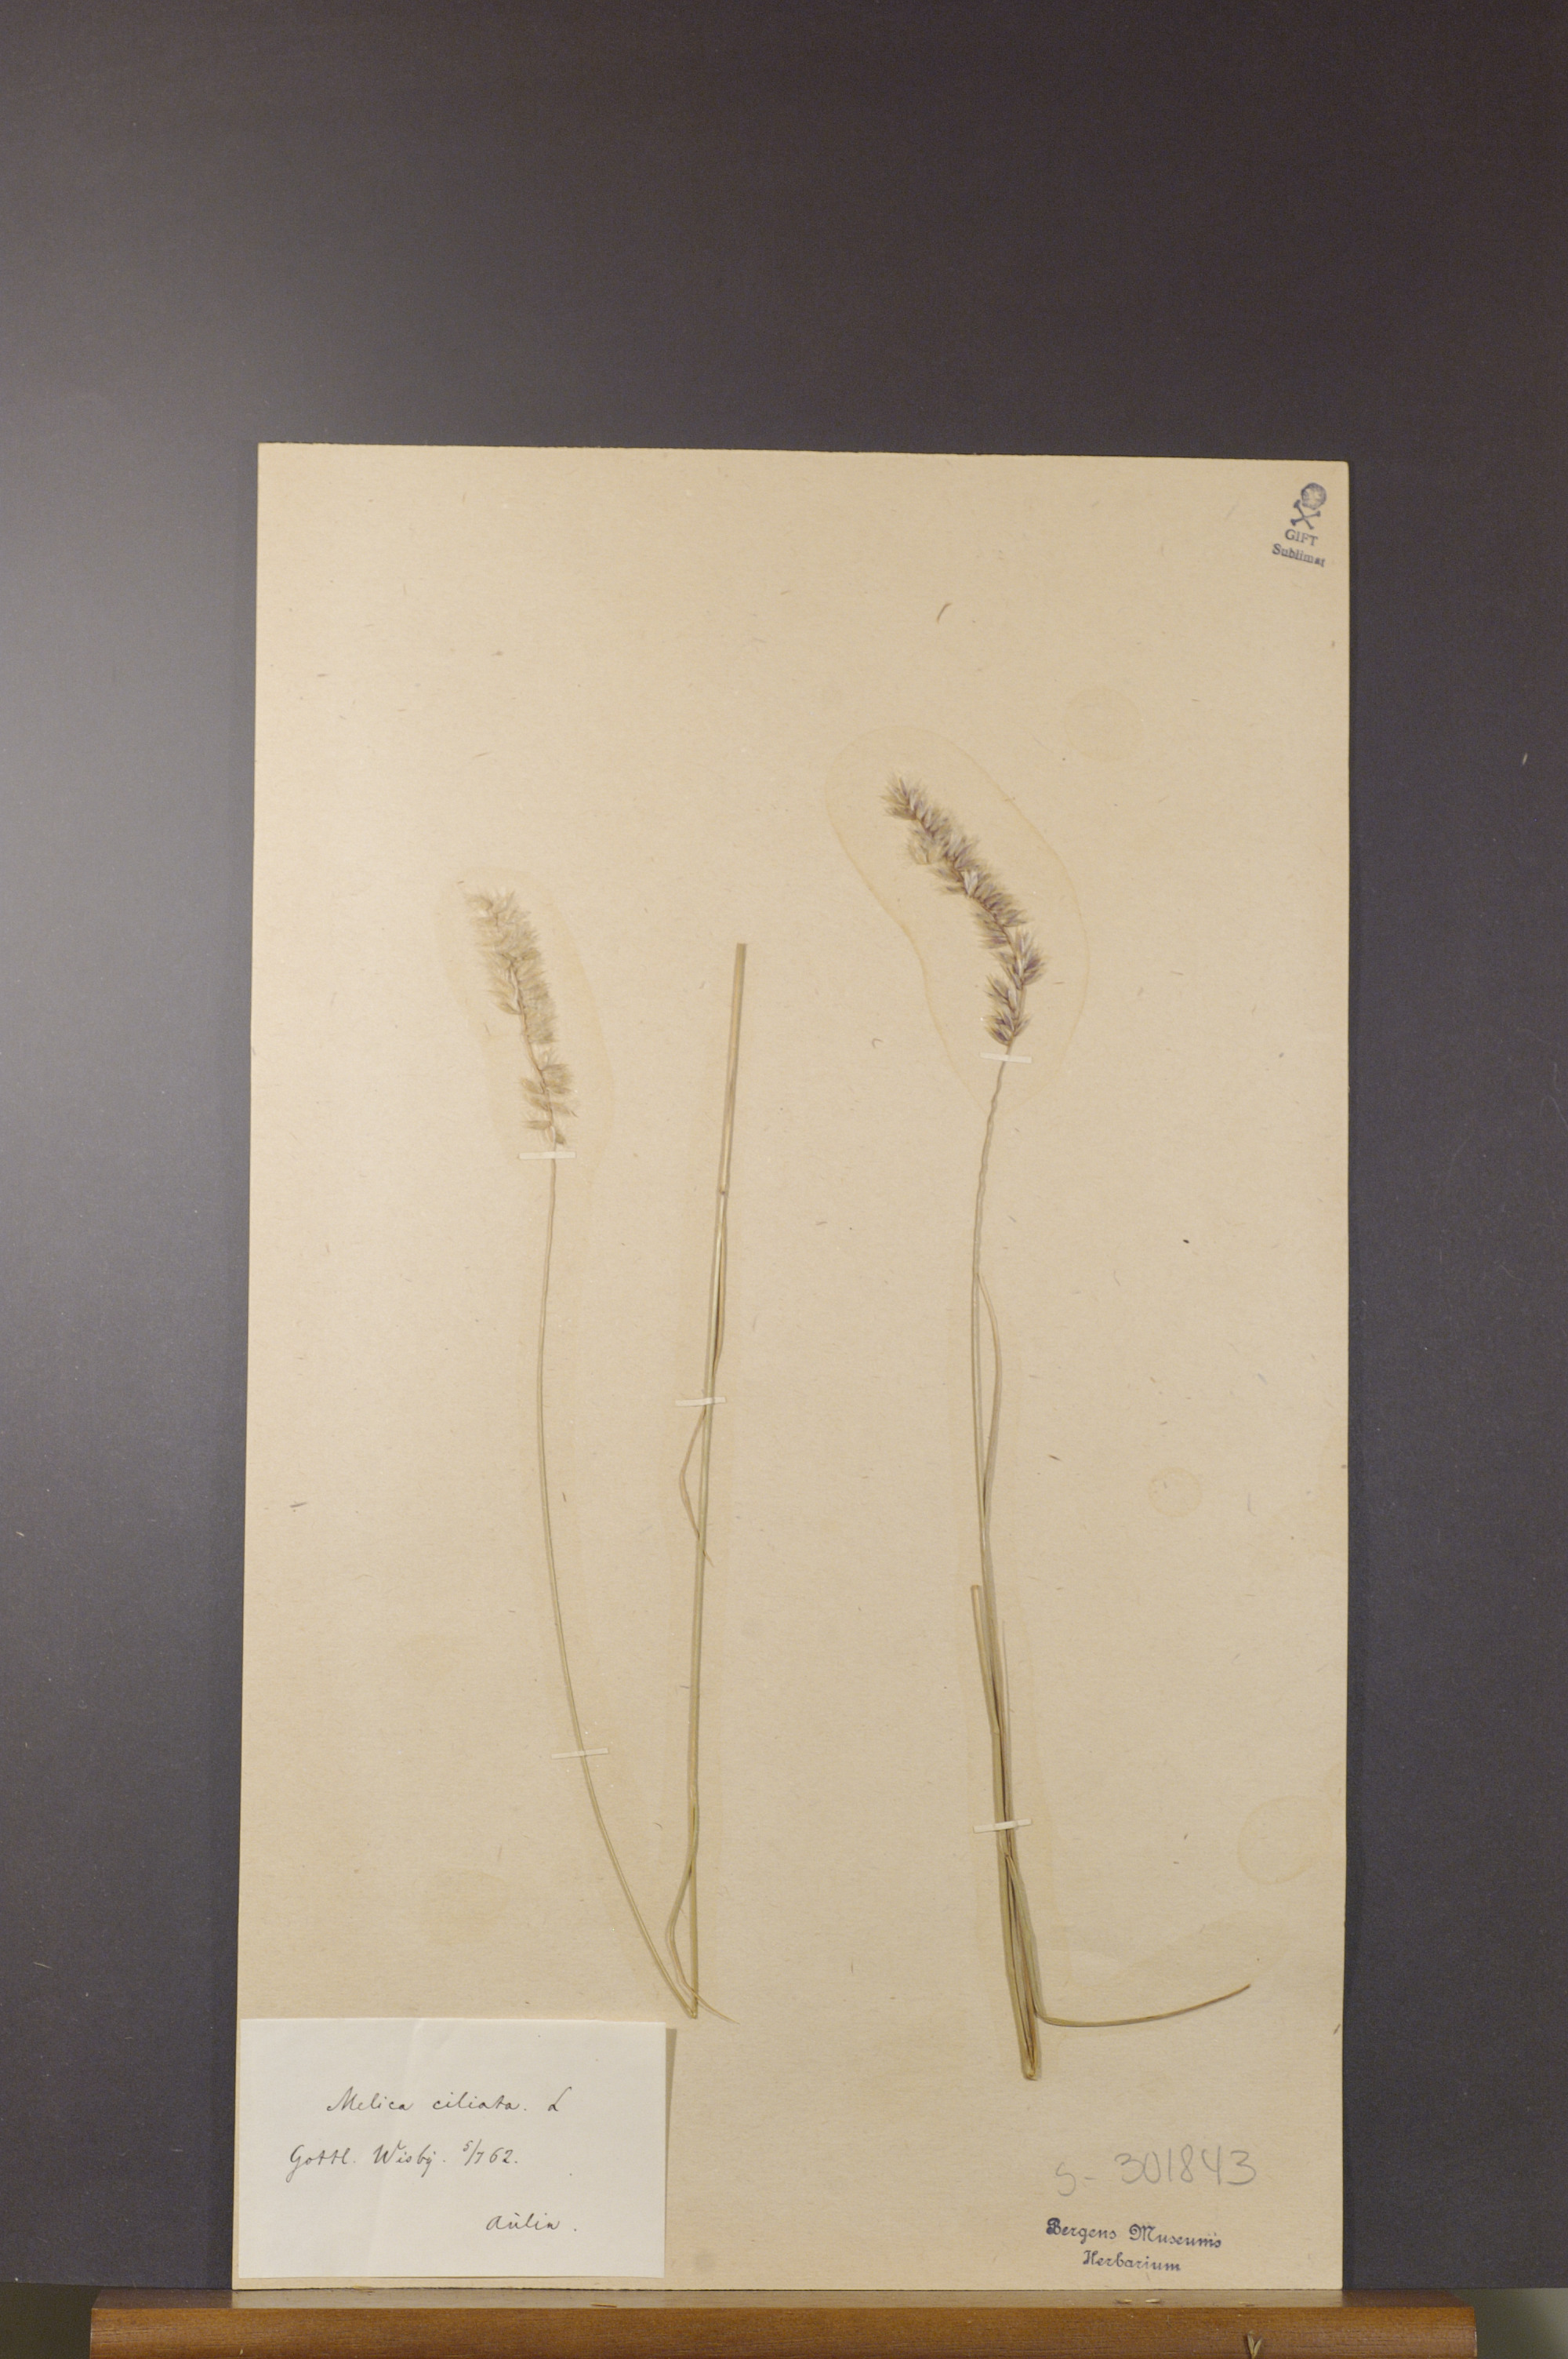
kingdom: Plantae
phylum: Tracheophyta
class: Liliopsida
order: Poales
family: Poaceae
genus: Melica
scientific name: Melica ciliata
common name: Hairy melicgrass
